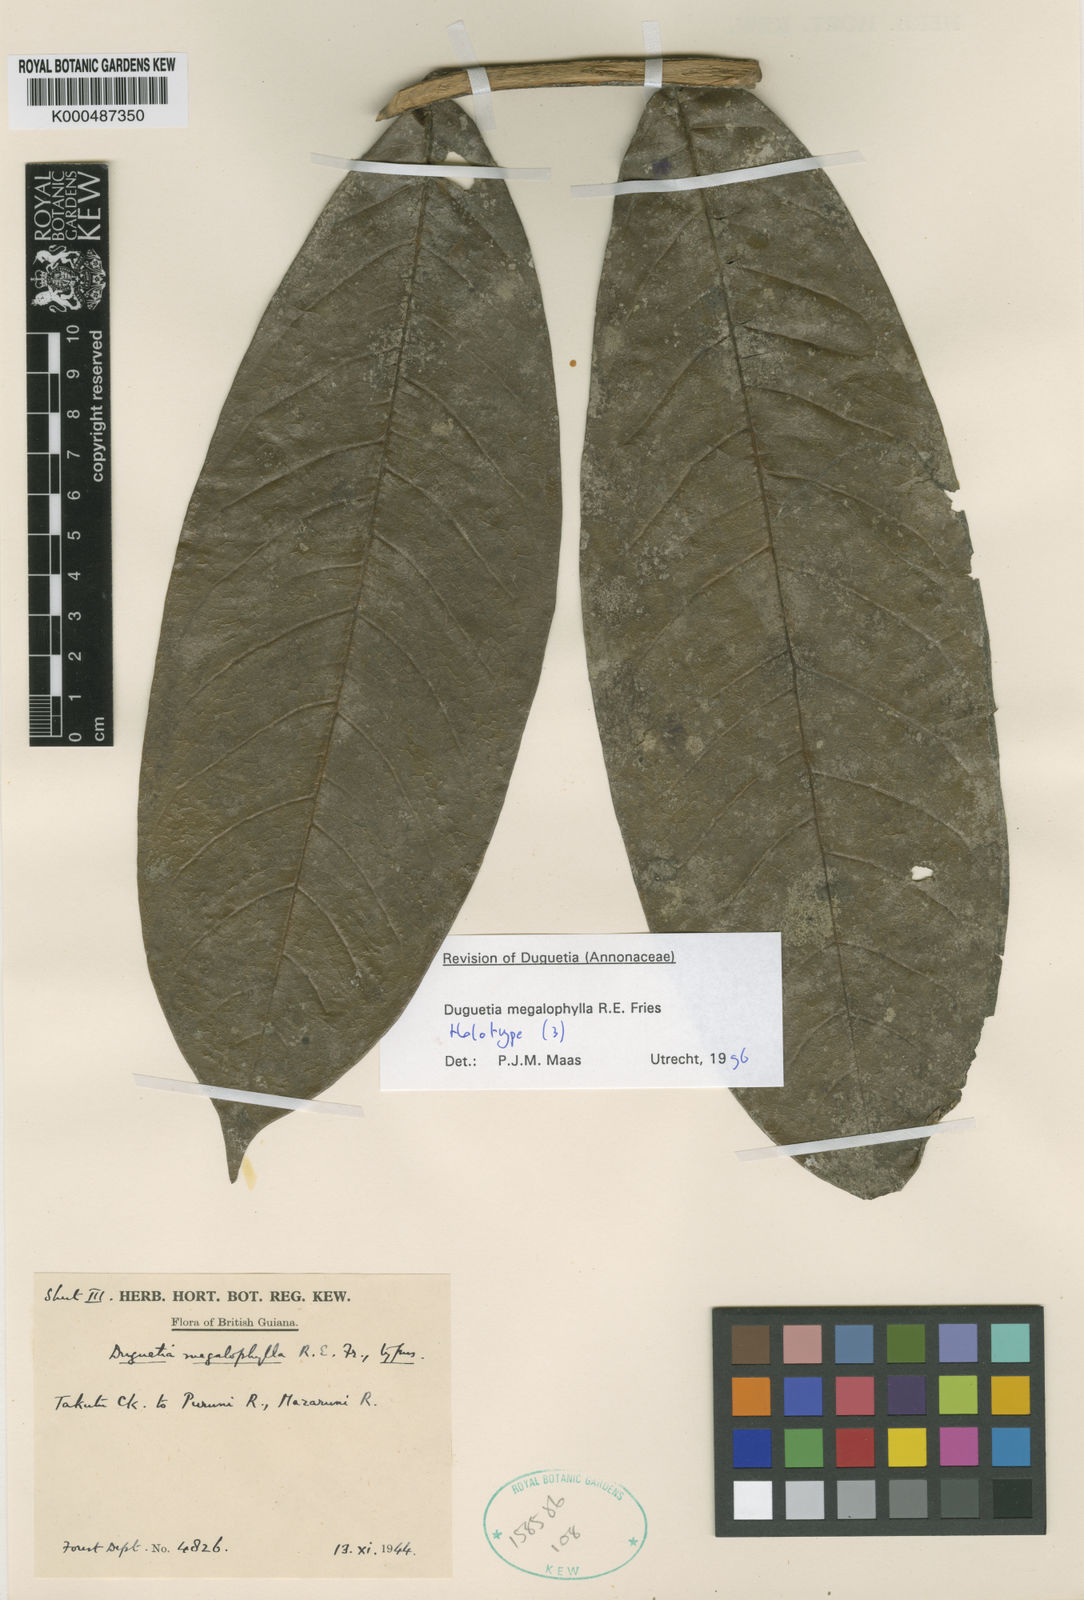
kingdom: Plantae
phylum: Tracheophyta
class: Magnoliopsida
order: Magnoliales
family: Annonaceae
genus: Duguetia
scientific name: Duguetia megalophylla
